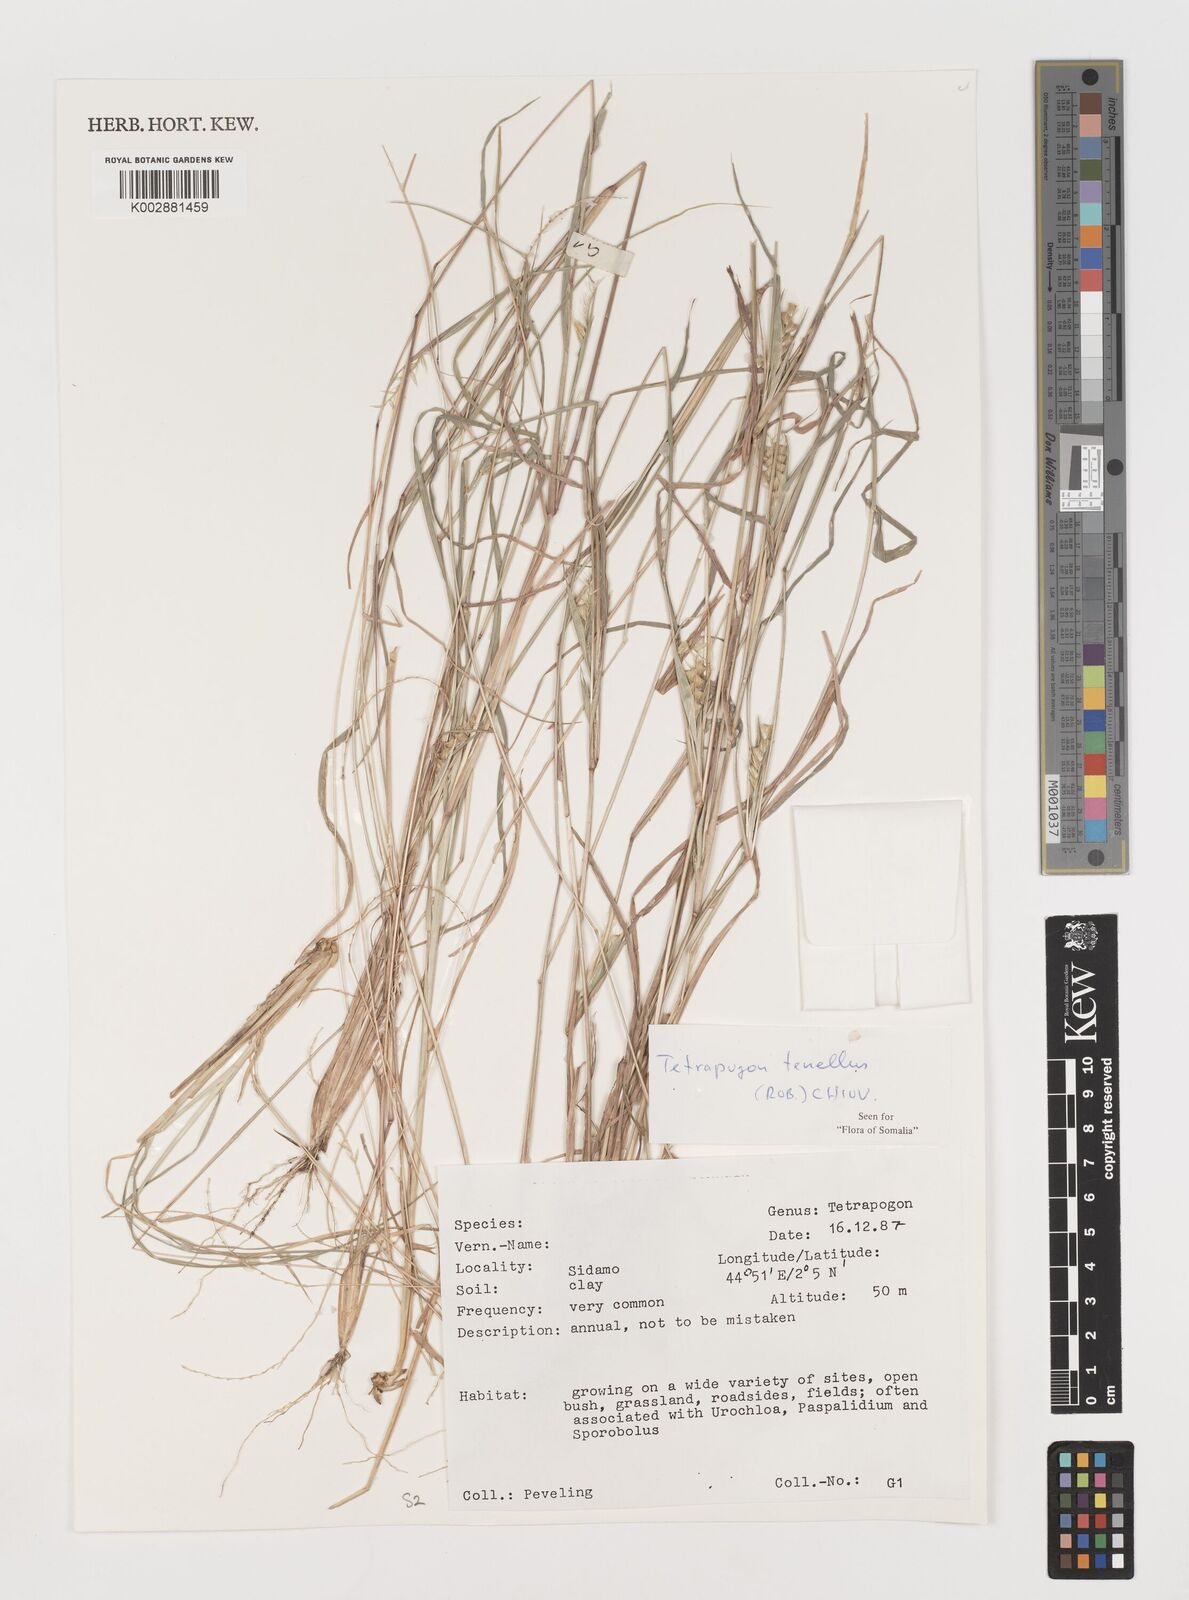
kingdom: Plantae
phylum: Tracheophyta
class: Liliopsida
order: Poales
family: Poaceae
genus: Tetrapogon
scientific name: Tetrapogon tenellus
